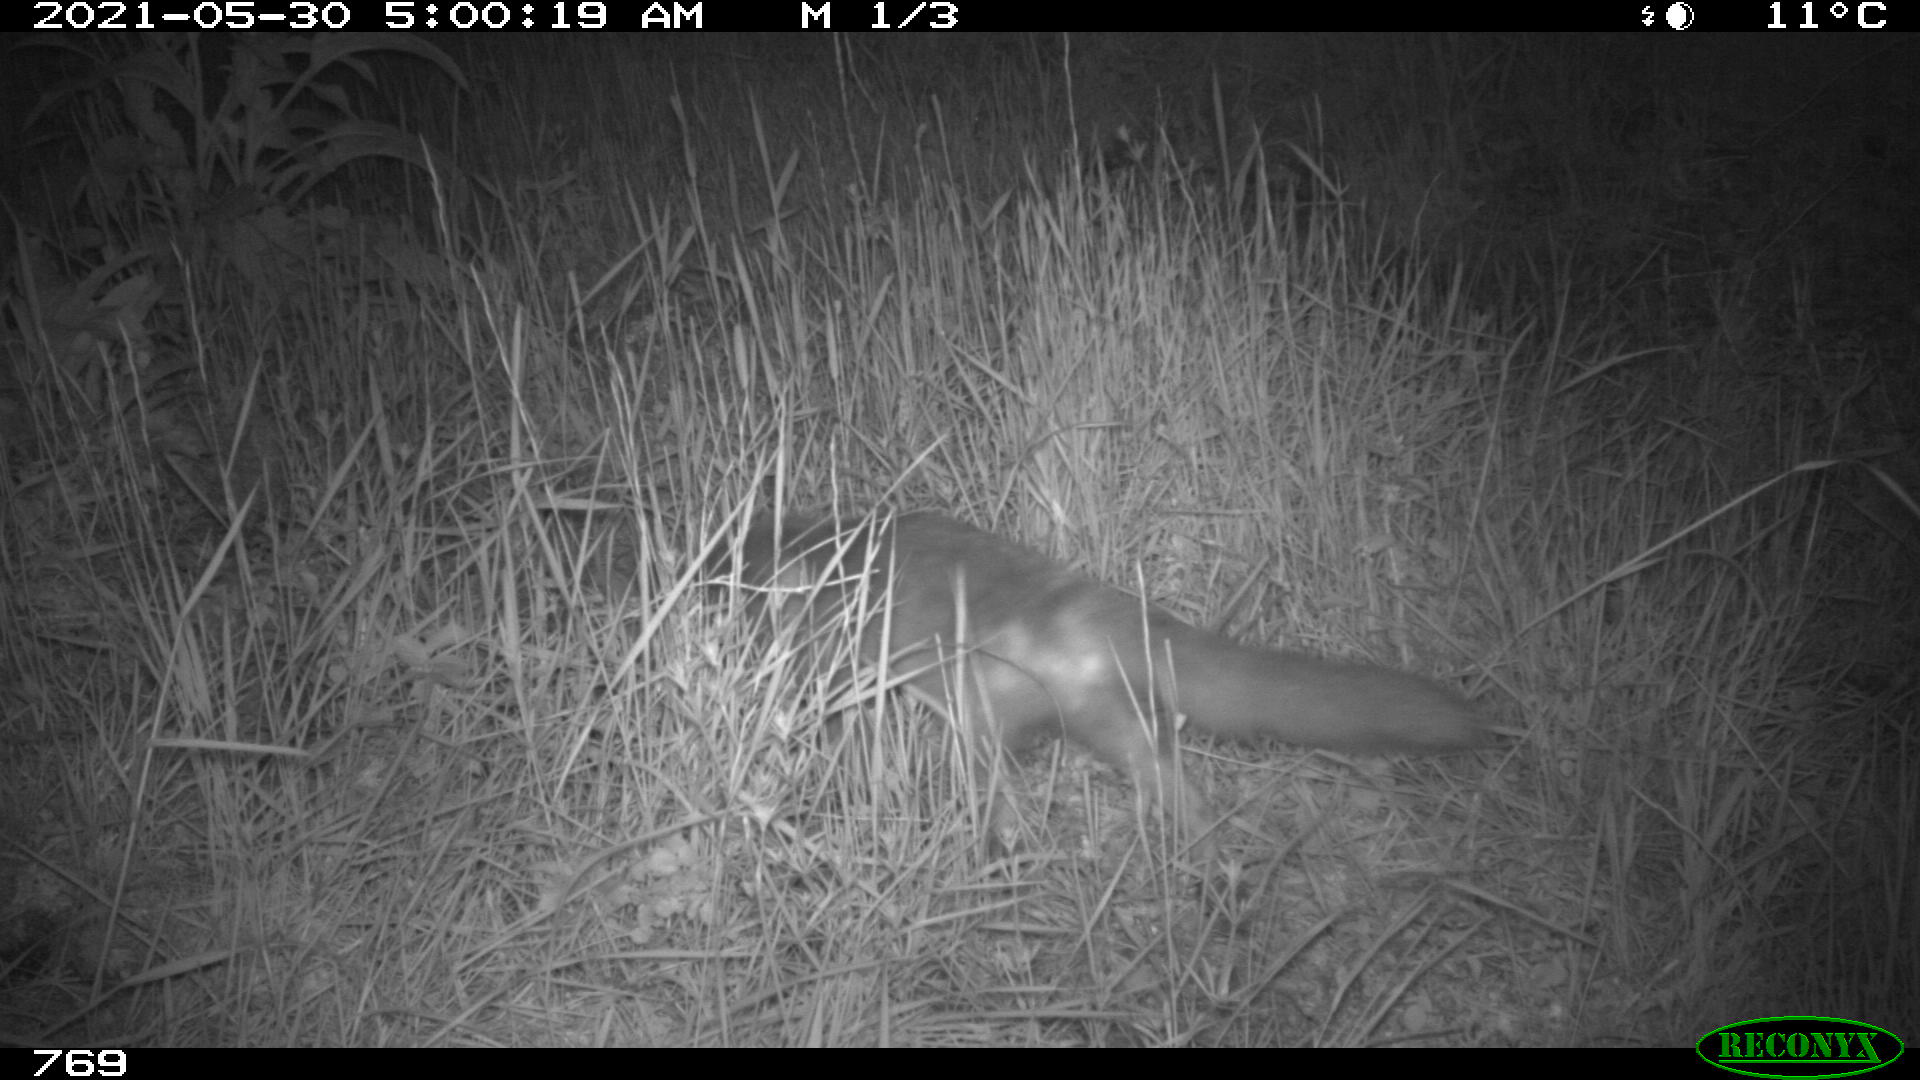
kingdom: Animalia
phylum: Chordata
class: Mammalia
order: Carnivora
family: Canidae
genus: Vulpes
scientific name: Vulpes vulpes
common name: Red fox
